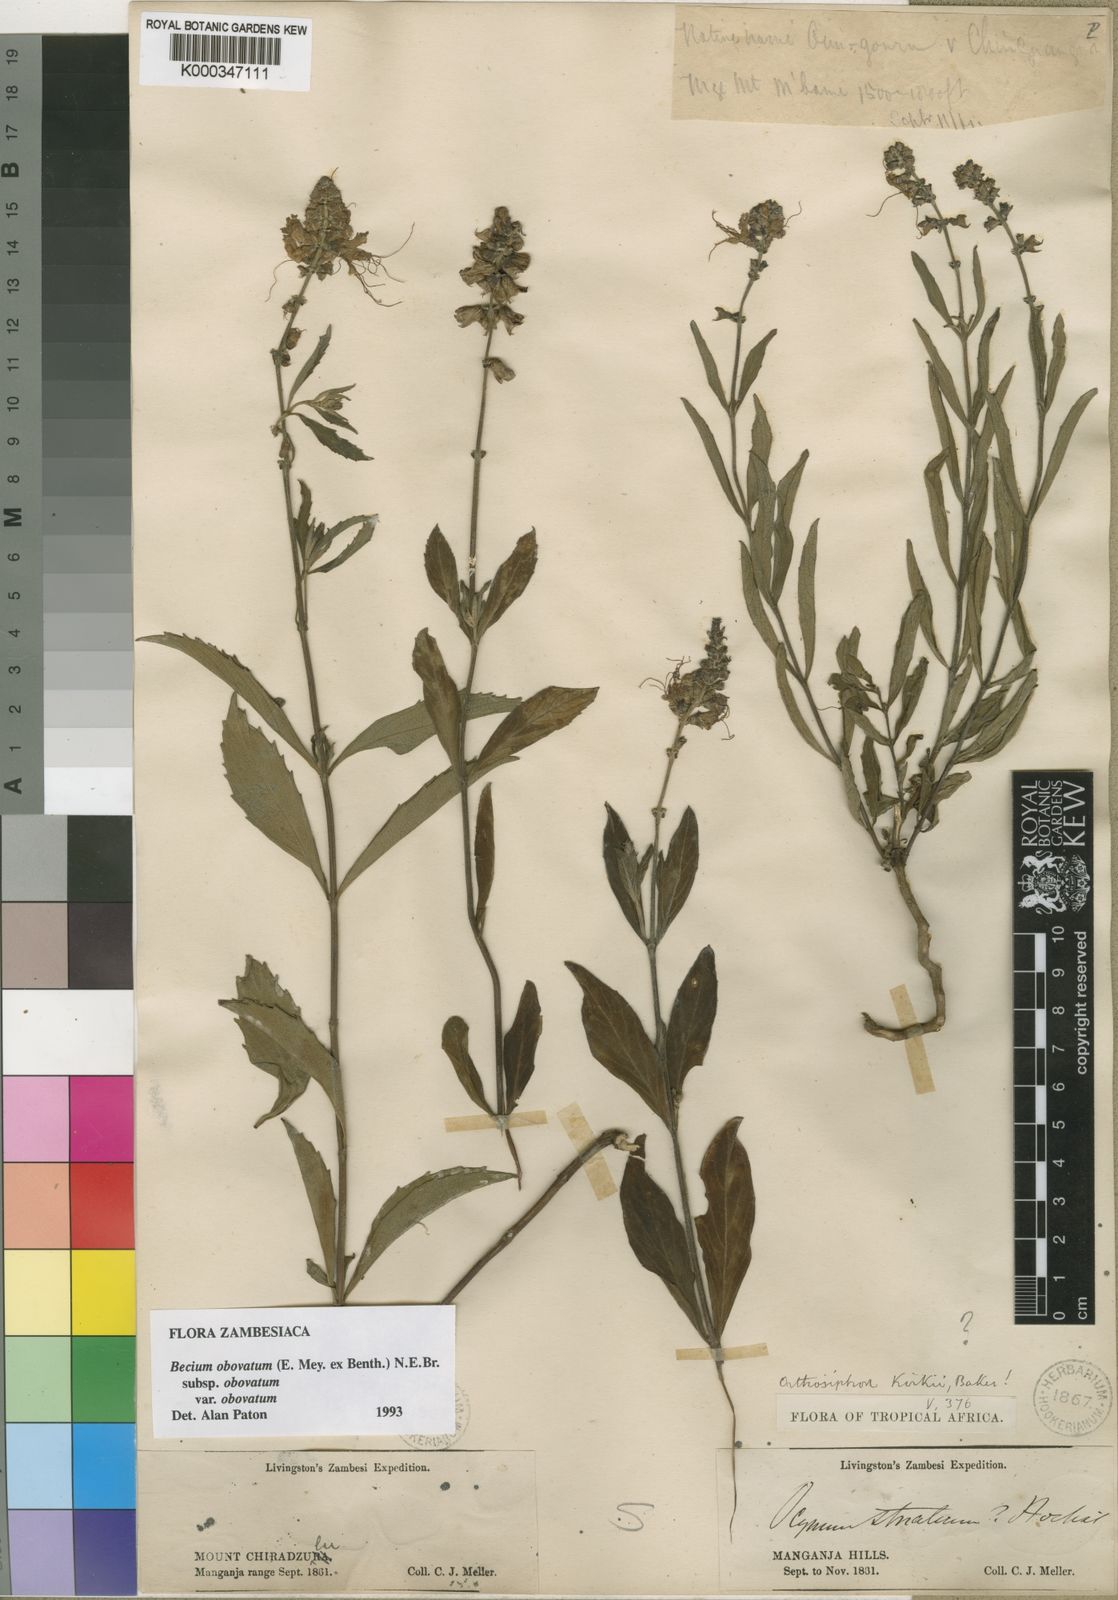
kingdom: Plantae
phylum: Tracheophyta
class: Magnoliopsida
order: Lamiales
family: Lamiaceae
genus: Ocimum
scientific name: Ocimum obovatum
